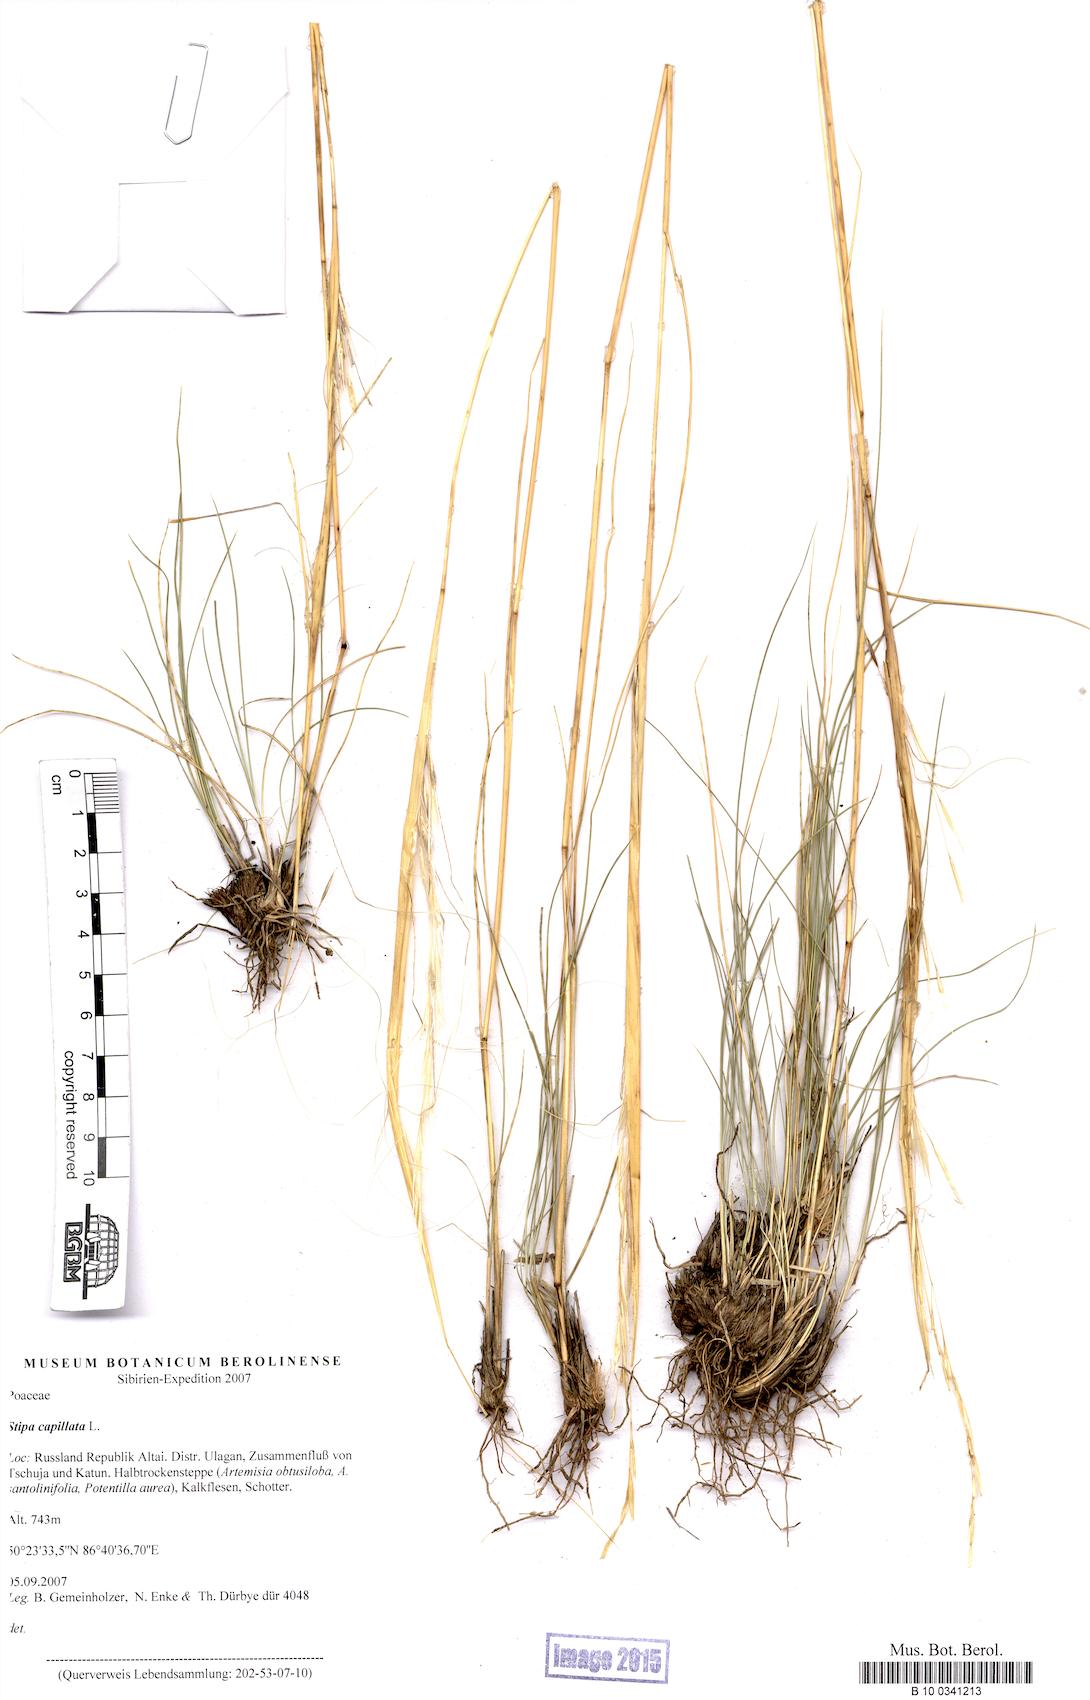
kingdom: Plantae
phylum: Tracheophyta
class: Liliopsida
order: Poales
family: Poaceae
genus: Stipa
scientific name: Stipa capillata
